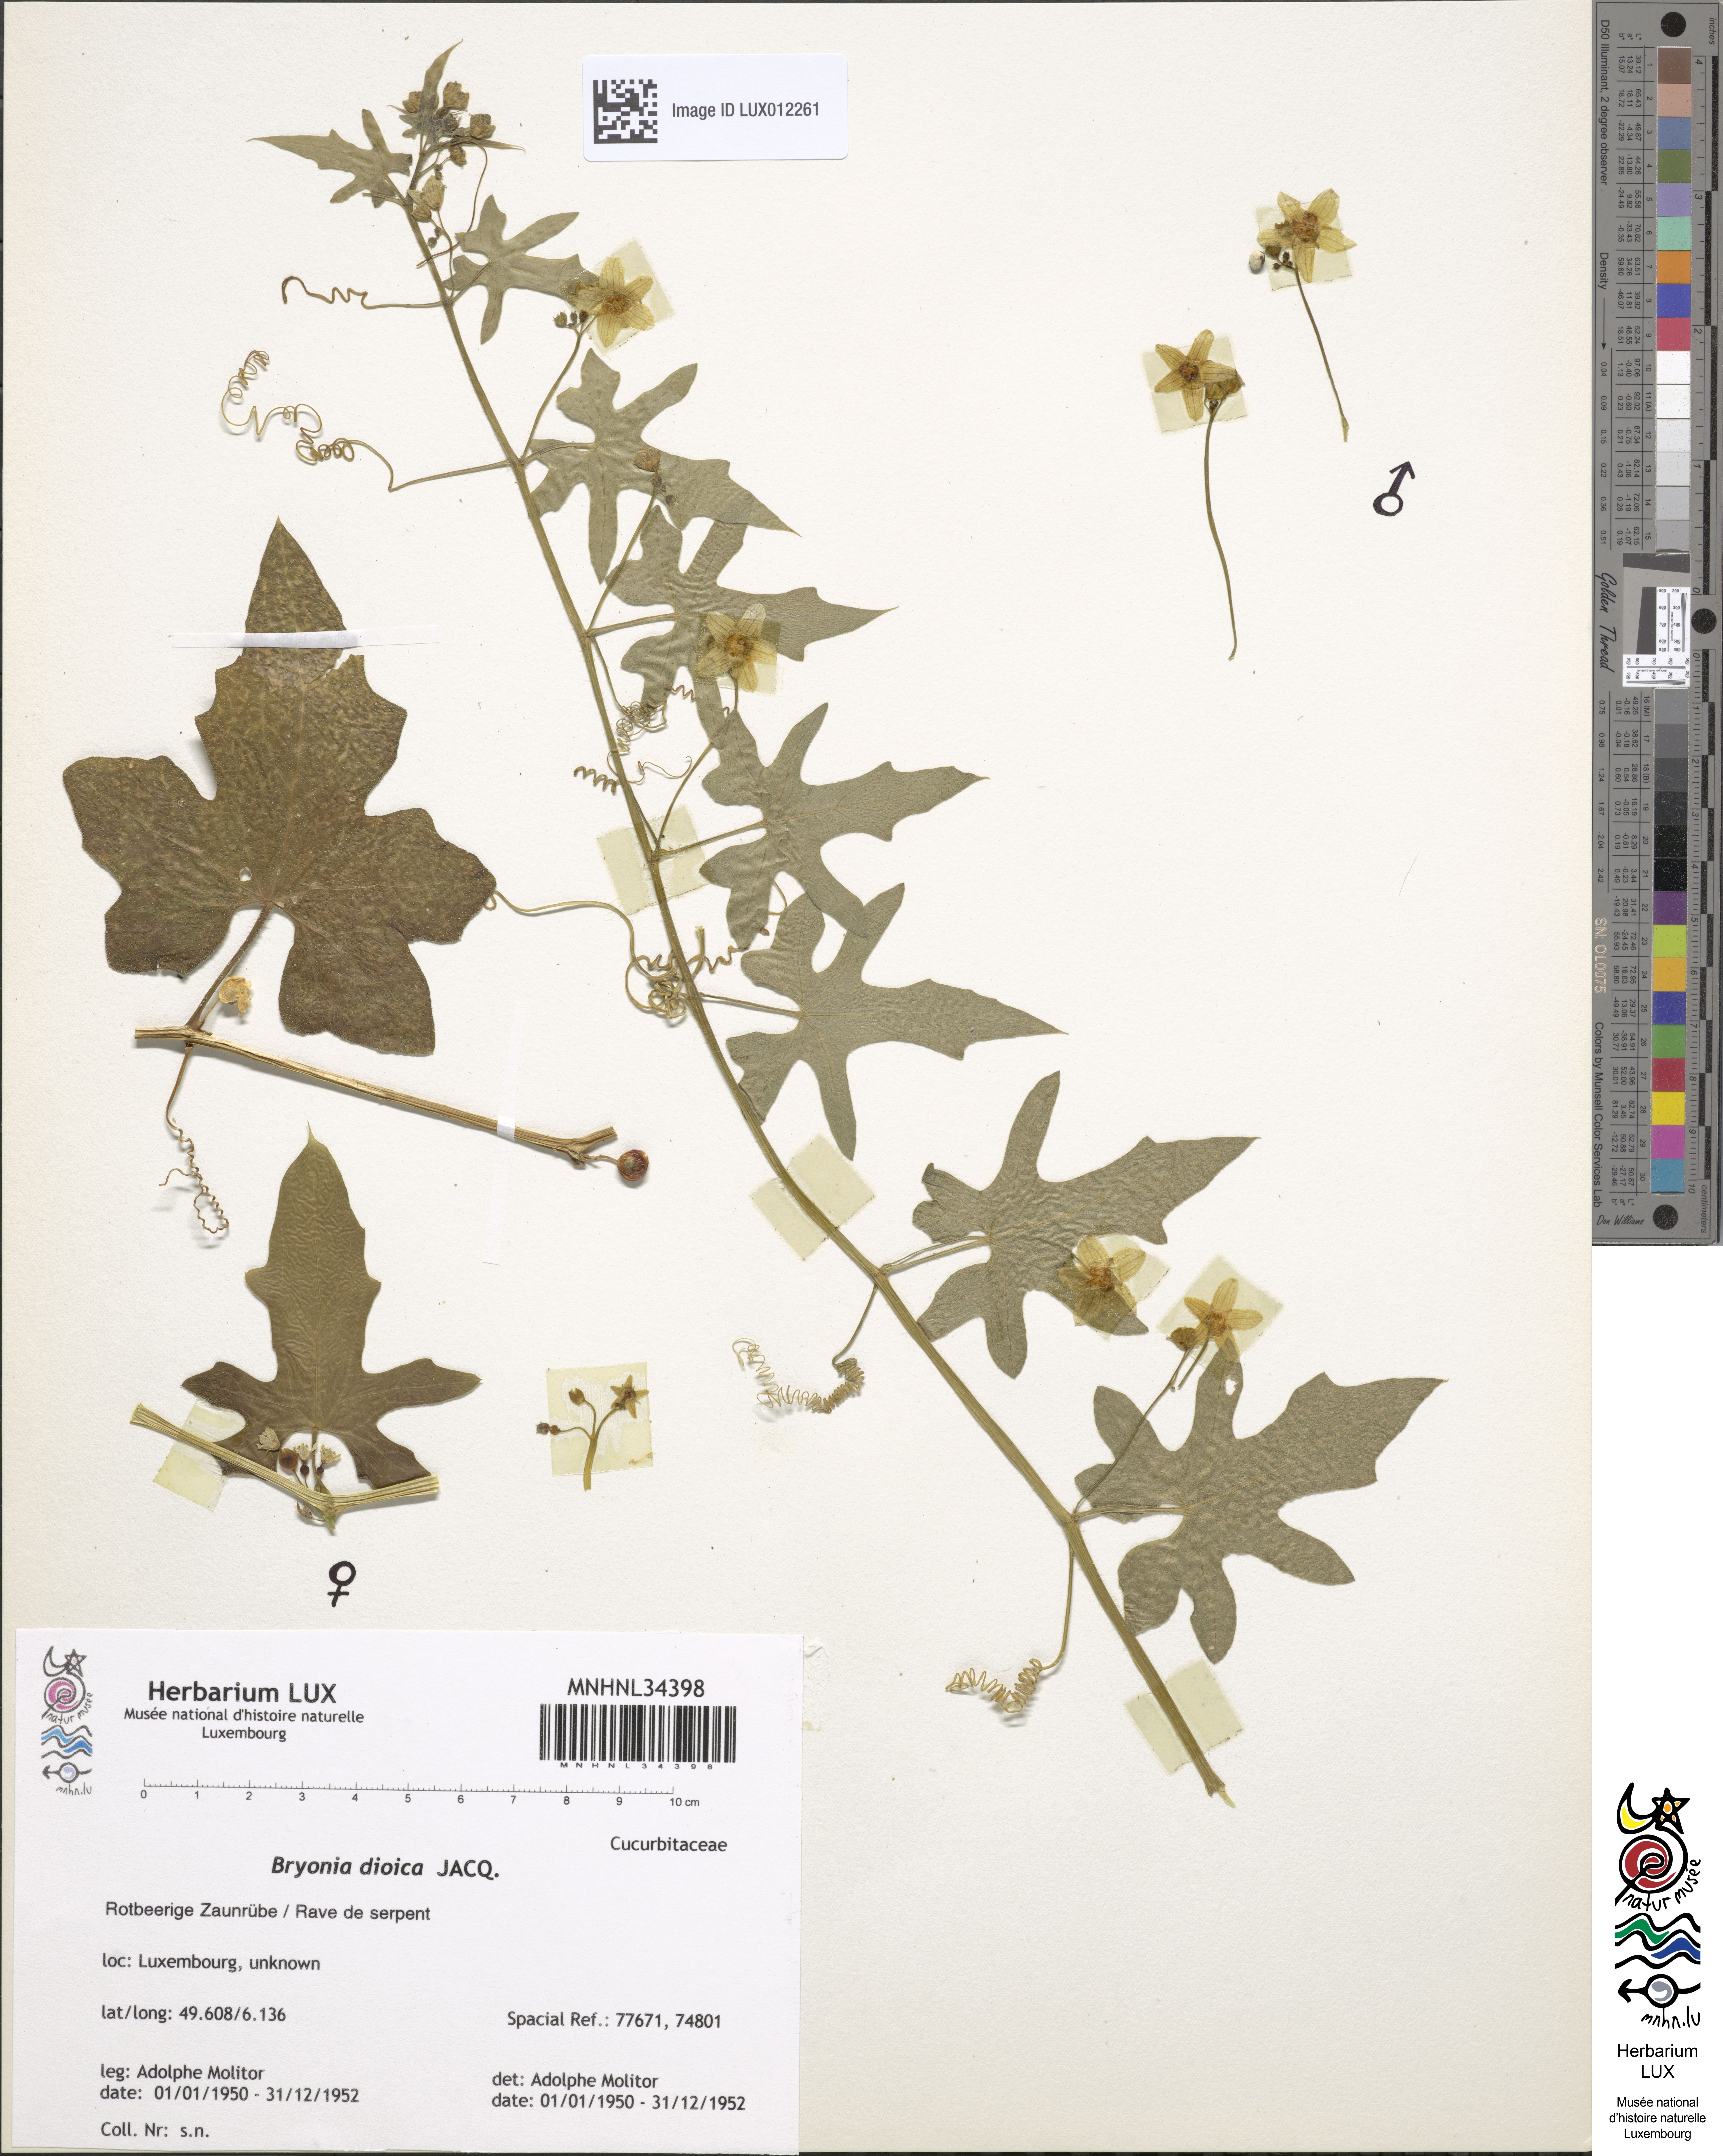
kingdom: Plantae
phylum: Tracheophyta
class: Magnoliopsida
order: Cucurbitales
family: Cucurbitaceae
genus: Bryonia
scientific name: Bryonia dioica
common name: White bryony
